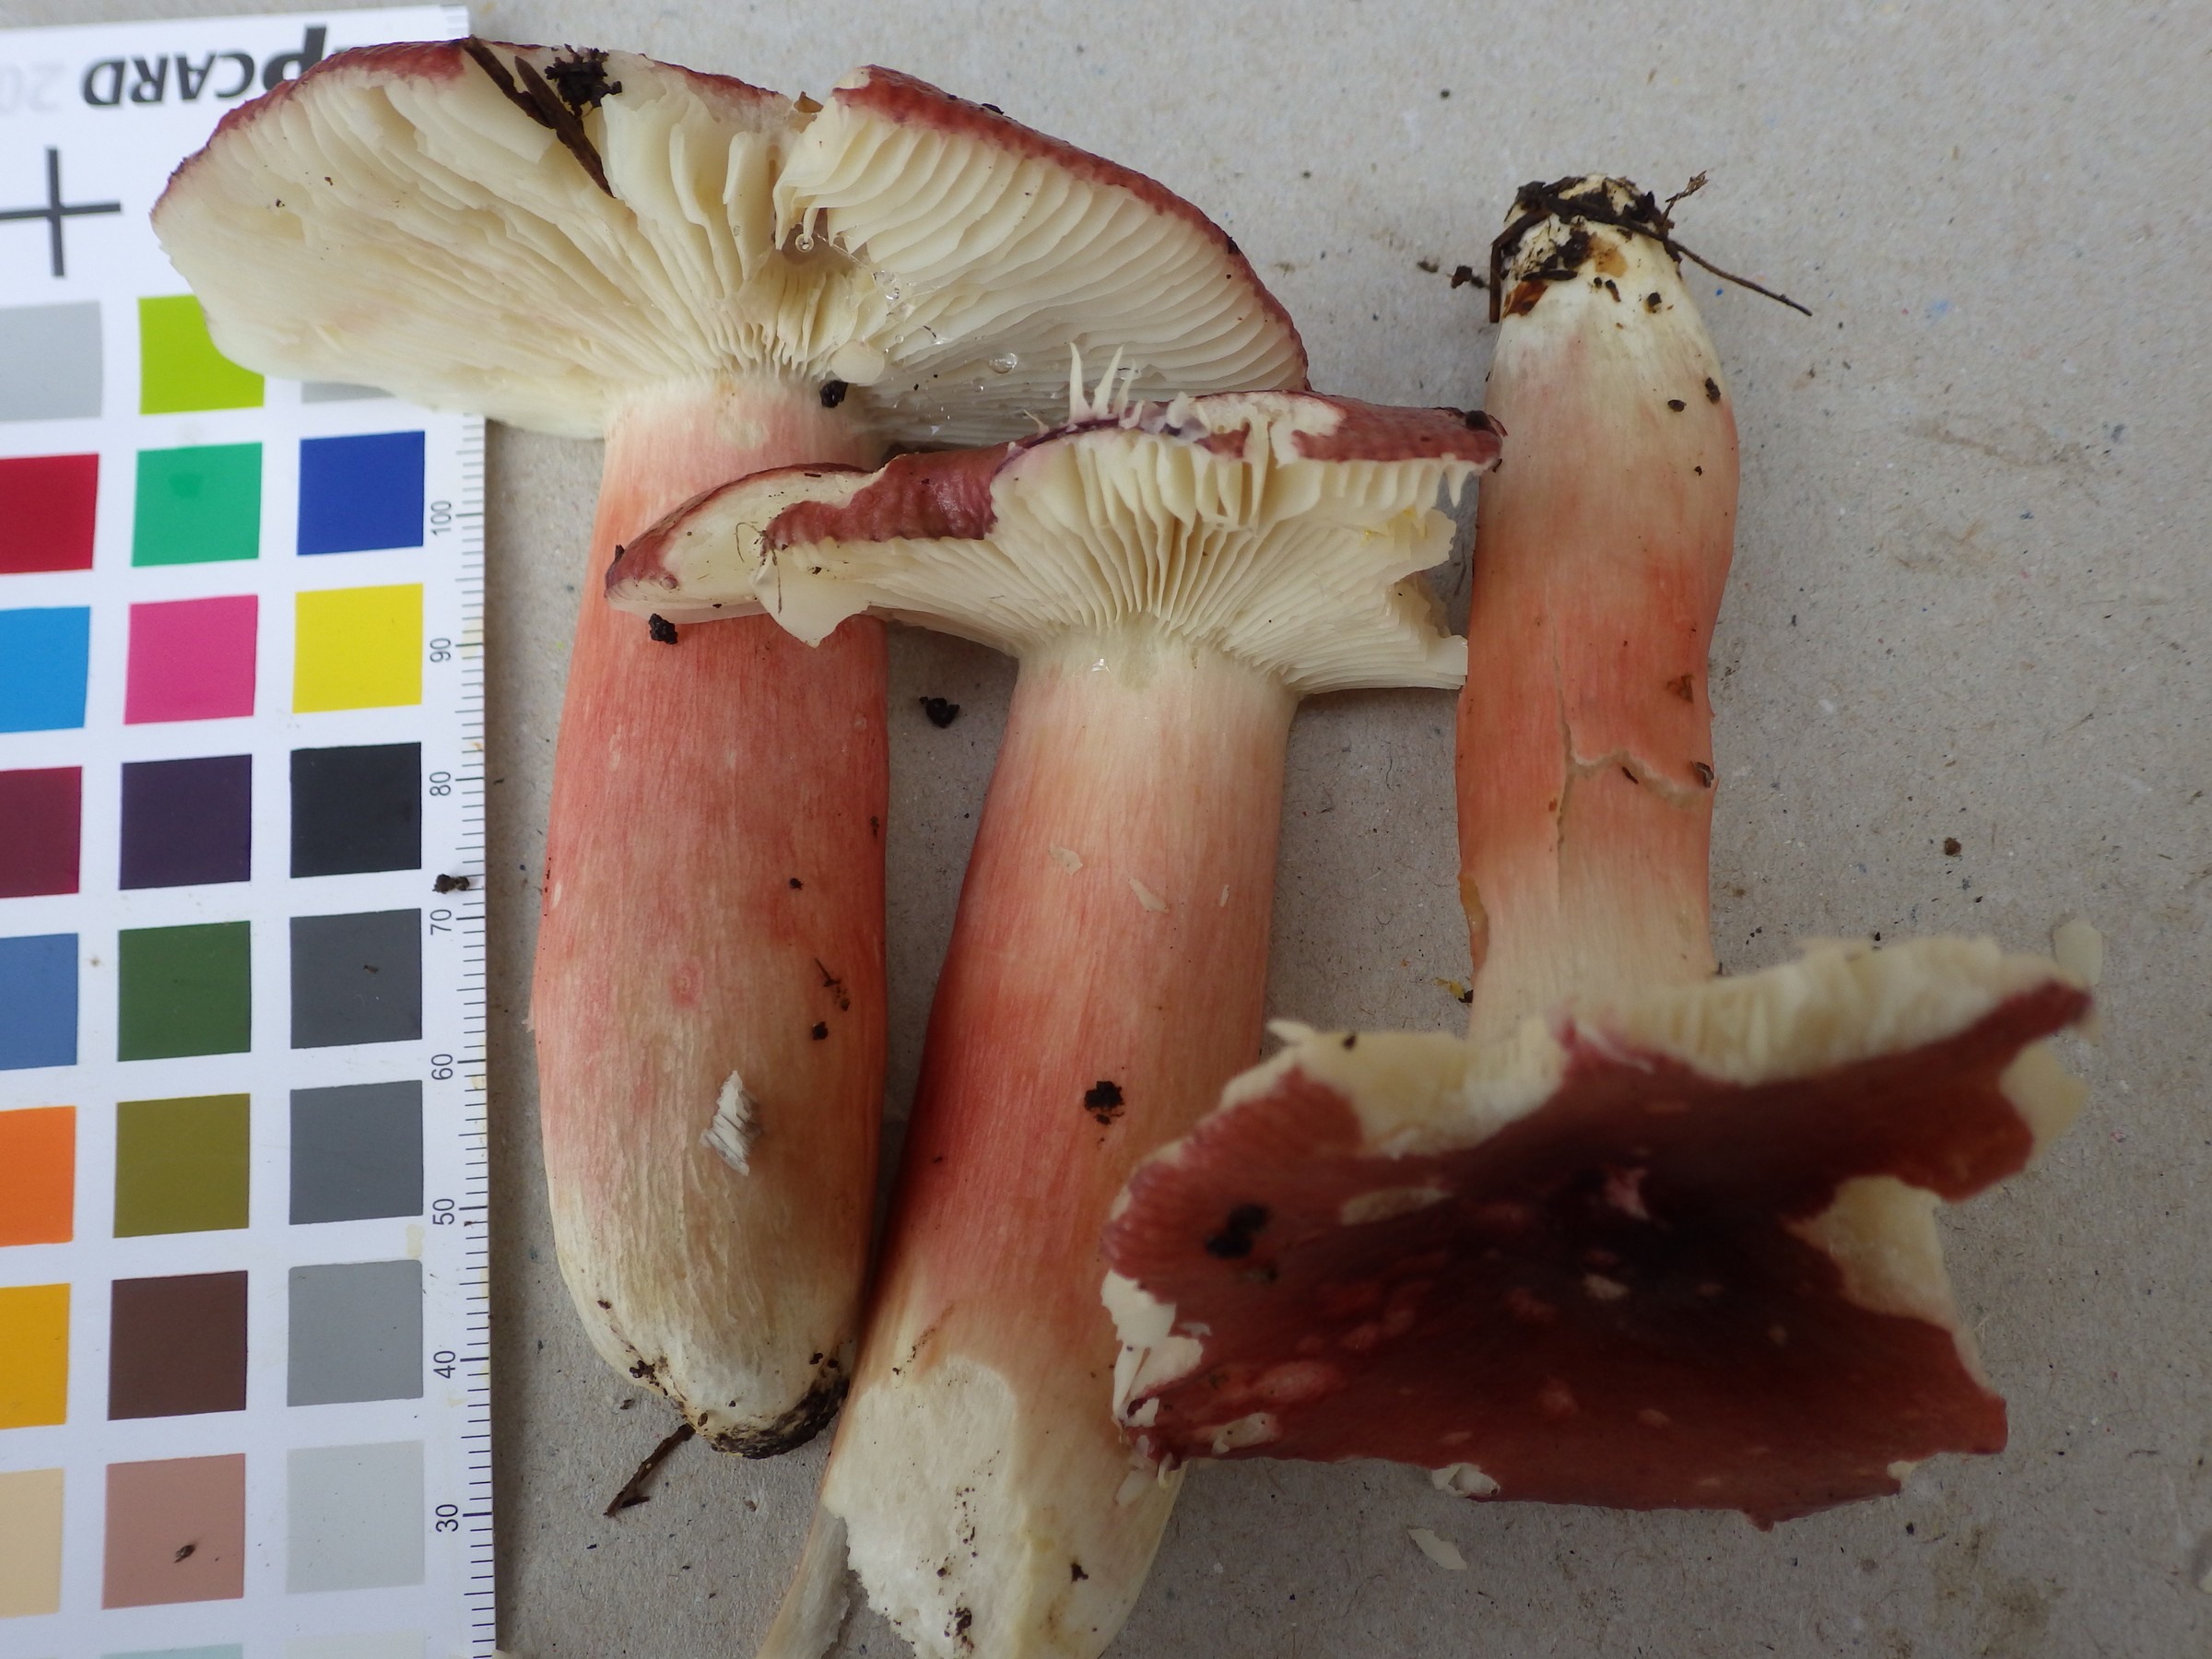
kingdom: Fungi
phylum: Basidiomycota
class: Agaricomycetes
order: Russulales
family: Russulaceae
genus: Russula
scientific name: Russula crassipes
